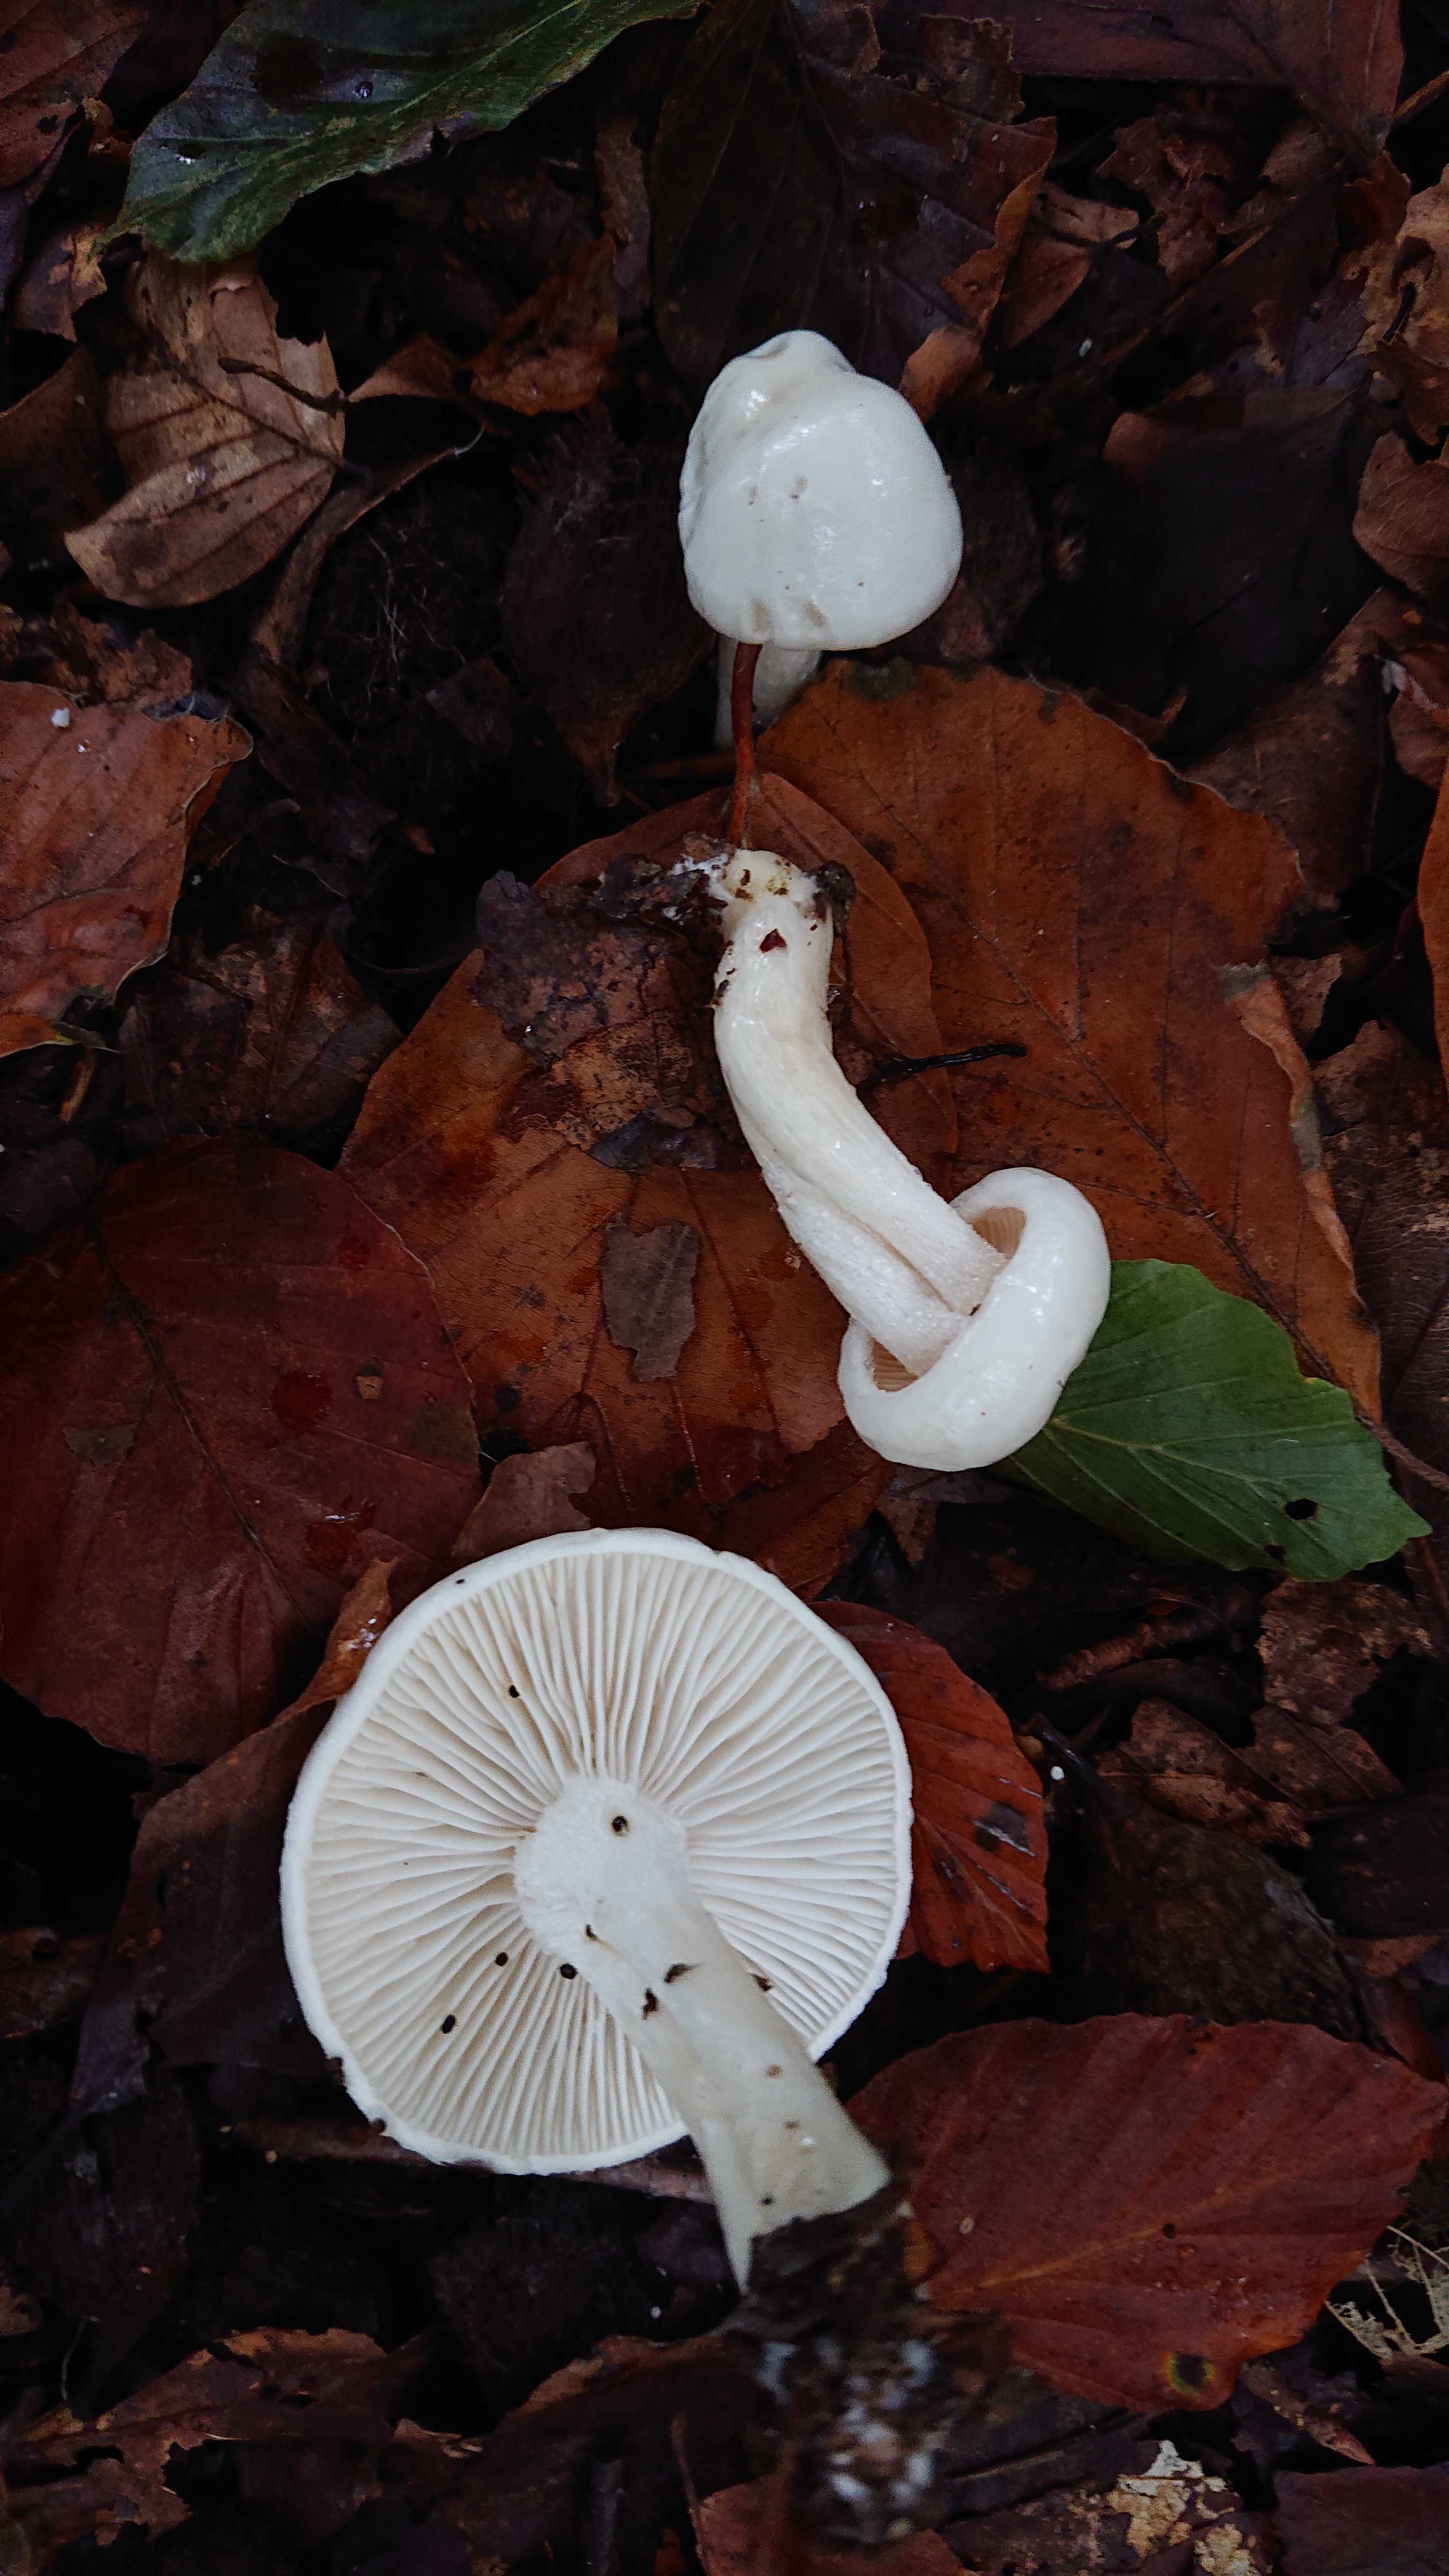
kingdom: Fungi
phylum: Basidiomycota
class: Agaricomycetes
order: Agaricales
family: Hygrophoraceae
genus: Hygrophorus
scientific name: Hygrophorus eburneus
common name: elfenbens-sneglehat
